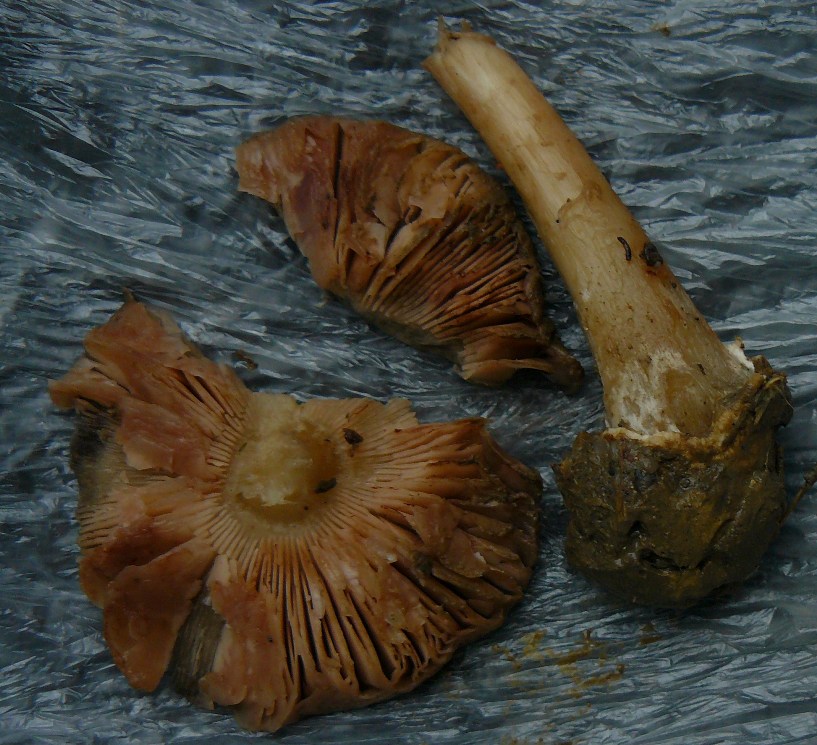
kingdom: Fungi
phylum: Basidiomycota
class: Agaricomycetes
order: Agaricales
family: Pluteaceae
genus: Volvopluteus
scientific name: Volvopluteus gloiocephalus
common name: høj posesvamp
